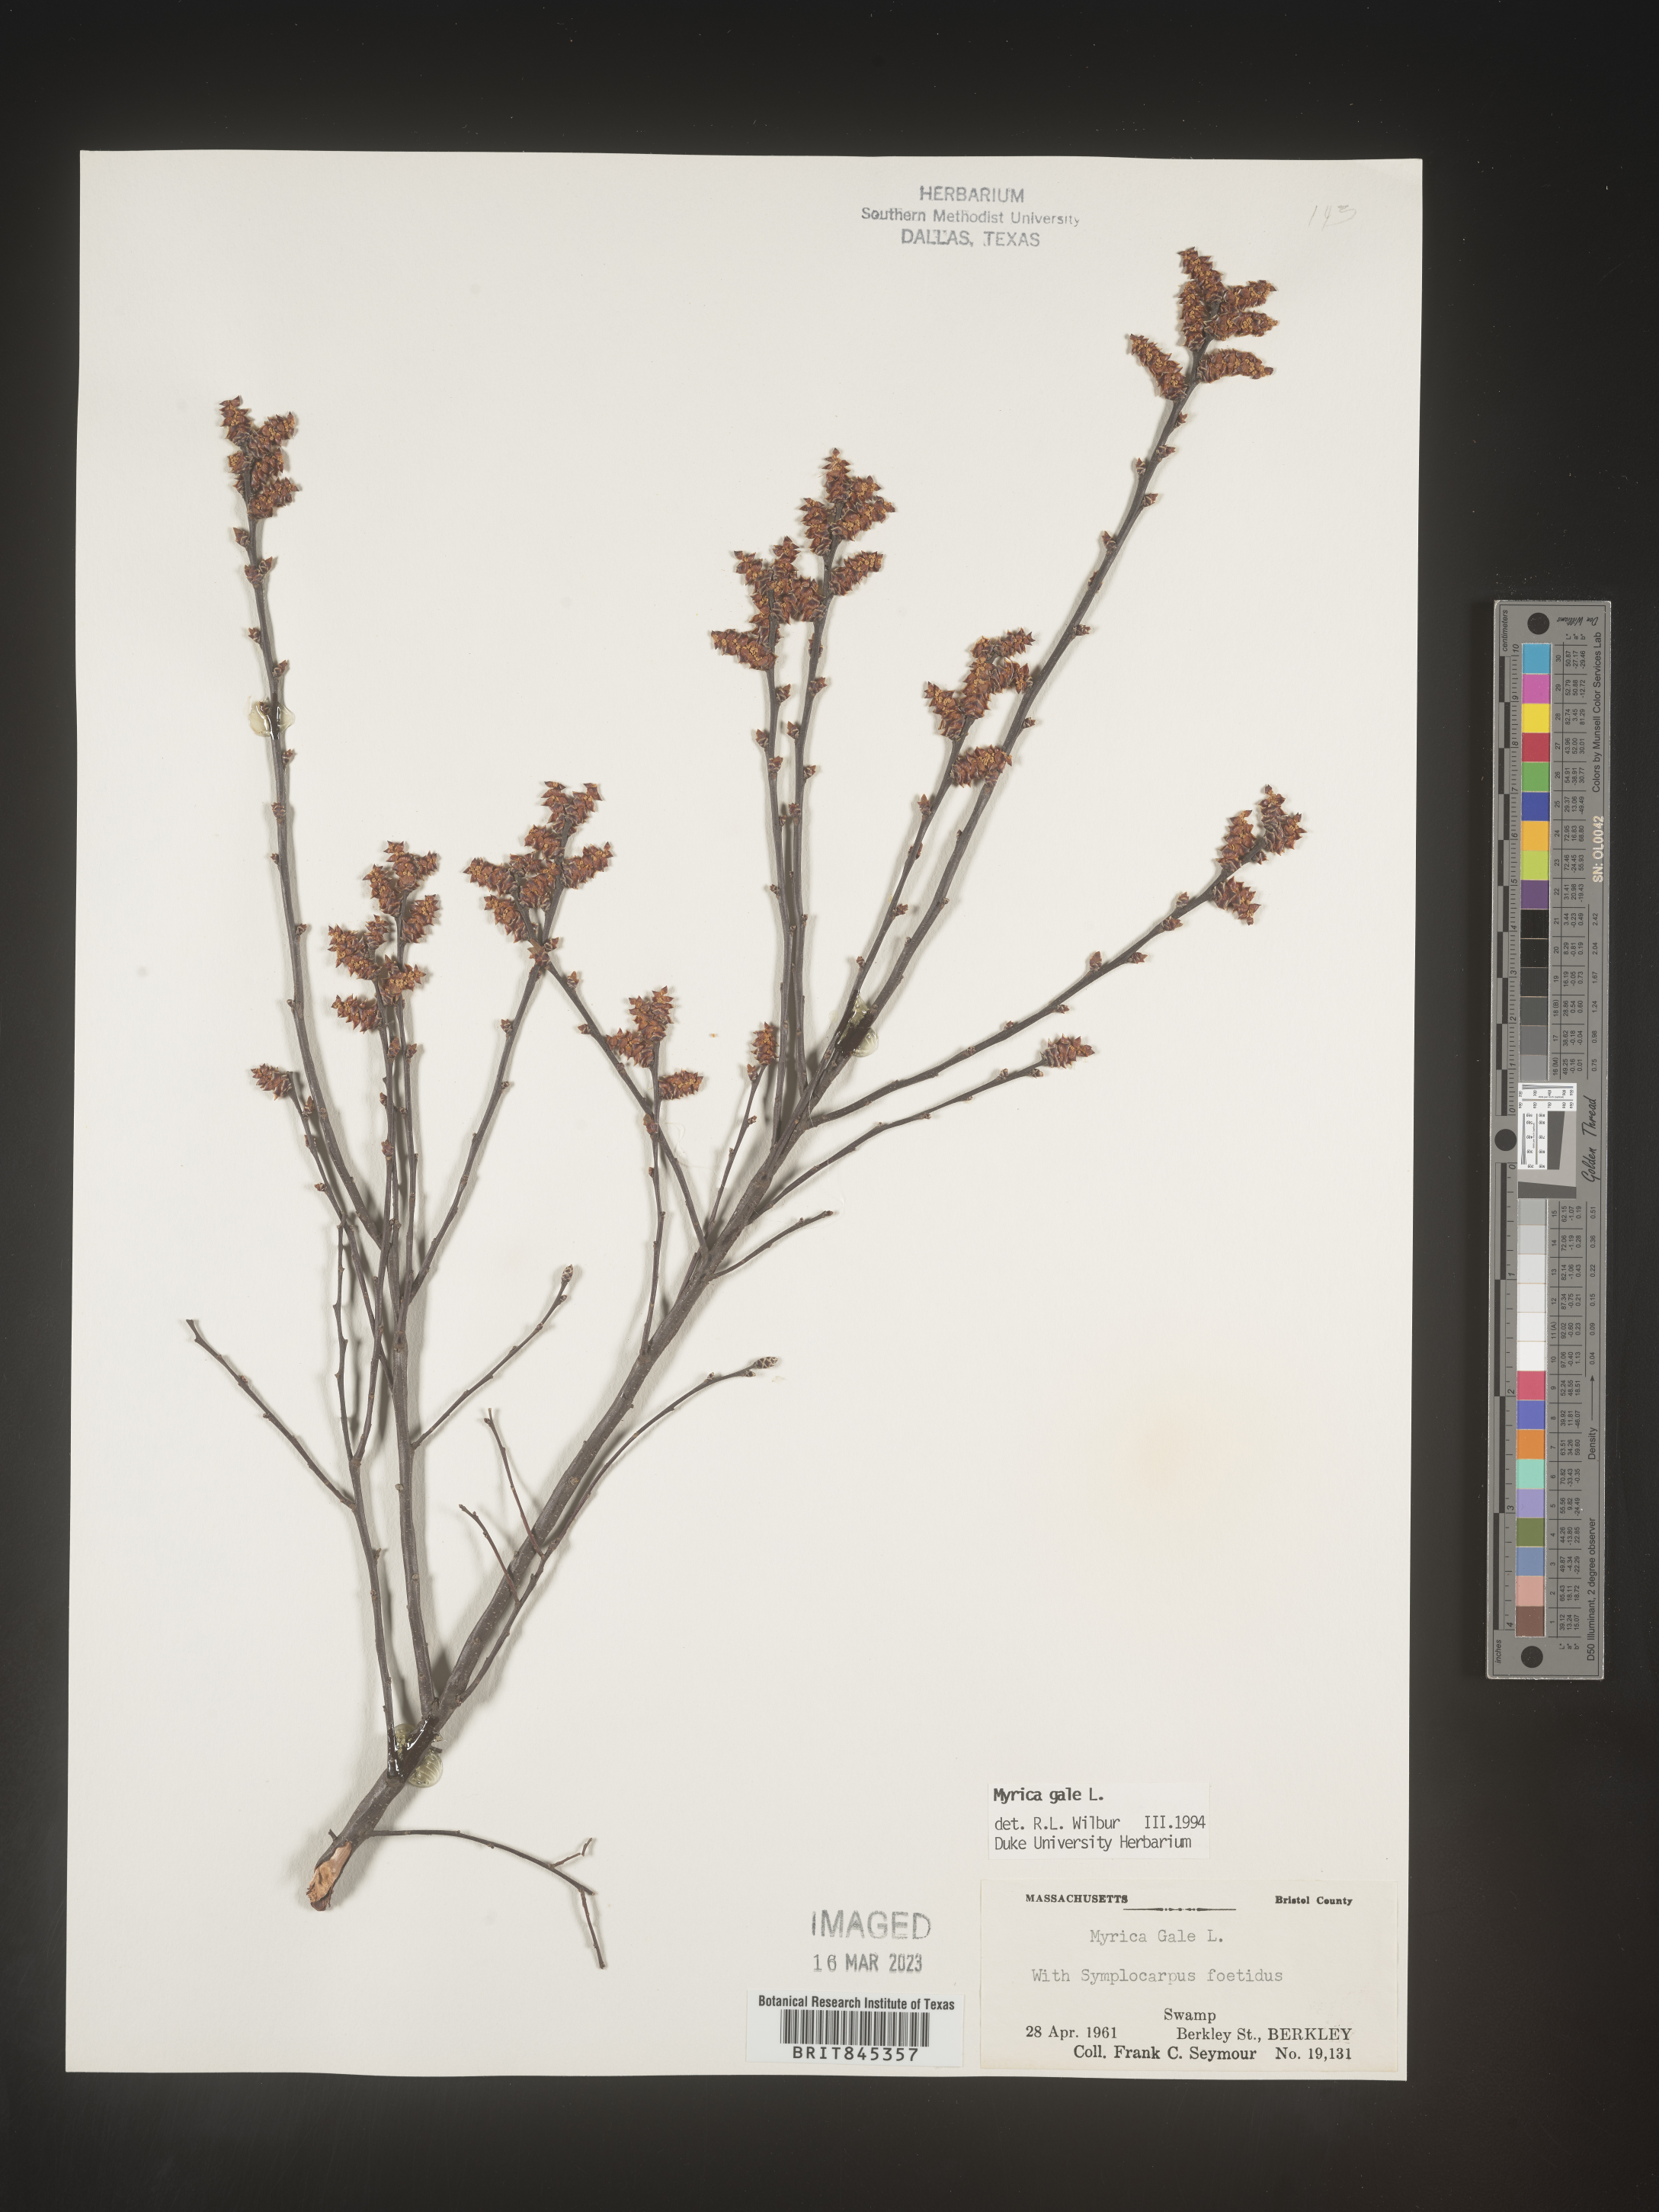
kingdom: Plantae
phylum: Tracheophyta
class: Magnoliopsida
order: Fagales
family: Myricaceae
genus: Myrica
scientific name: Myrica gale
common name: Sweet gale
